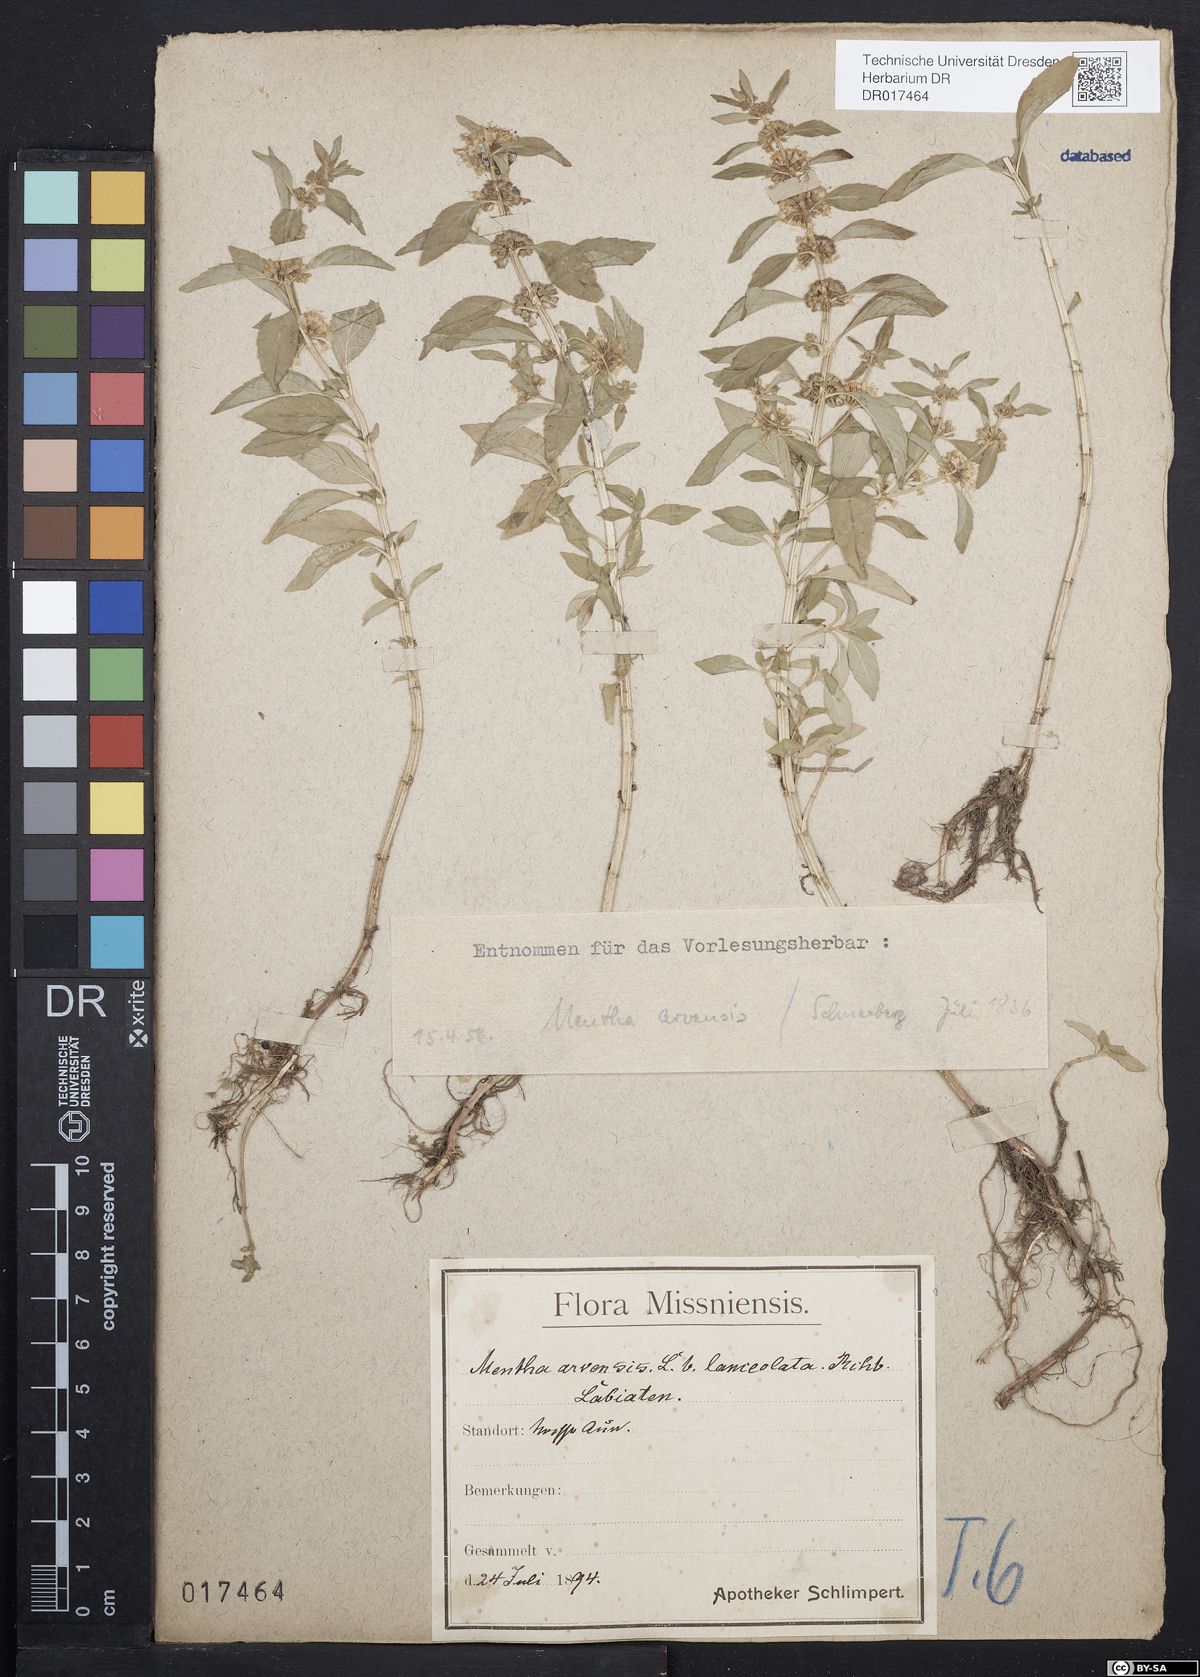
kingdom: Plantae
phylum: Tracheophyta
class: Magnoliopsida
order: Lamiales
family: Lamiaceae
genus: Mentha
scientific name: Mentha arvensis
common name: Corn mint
